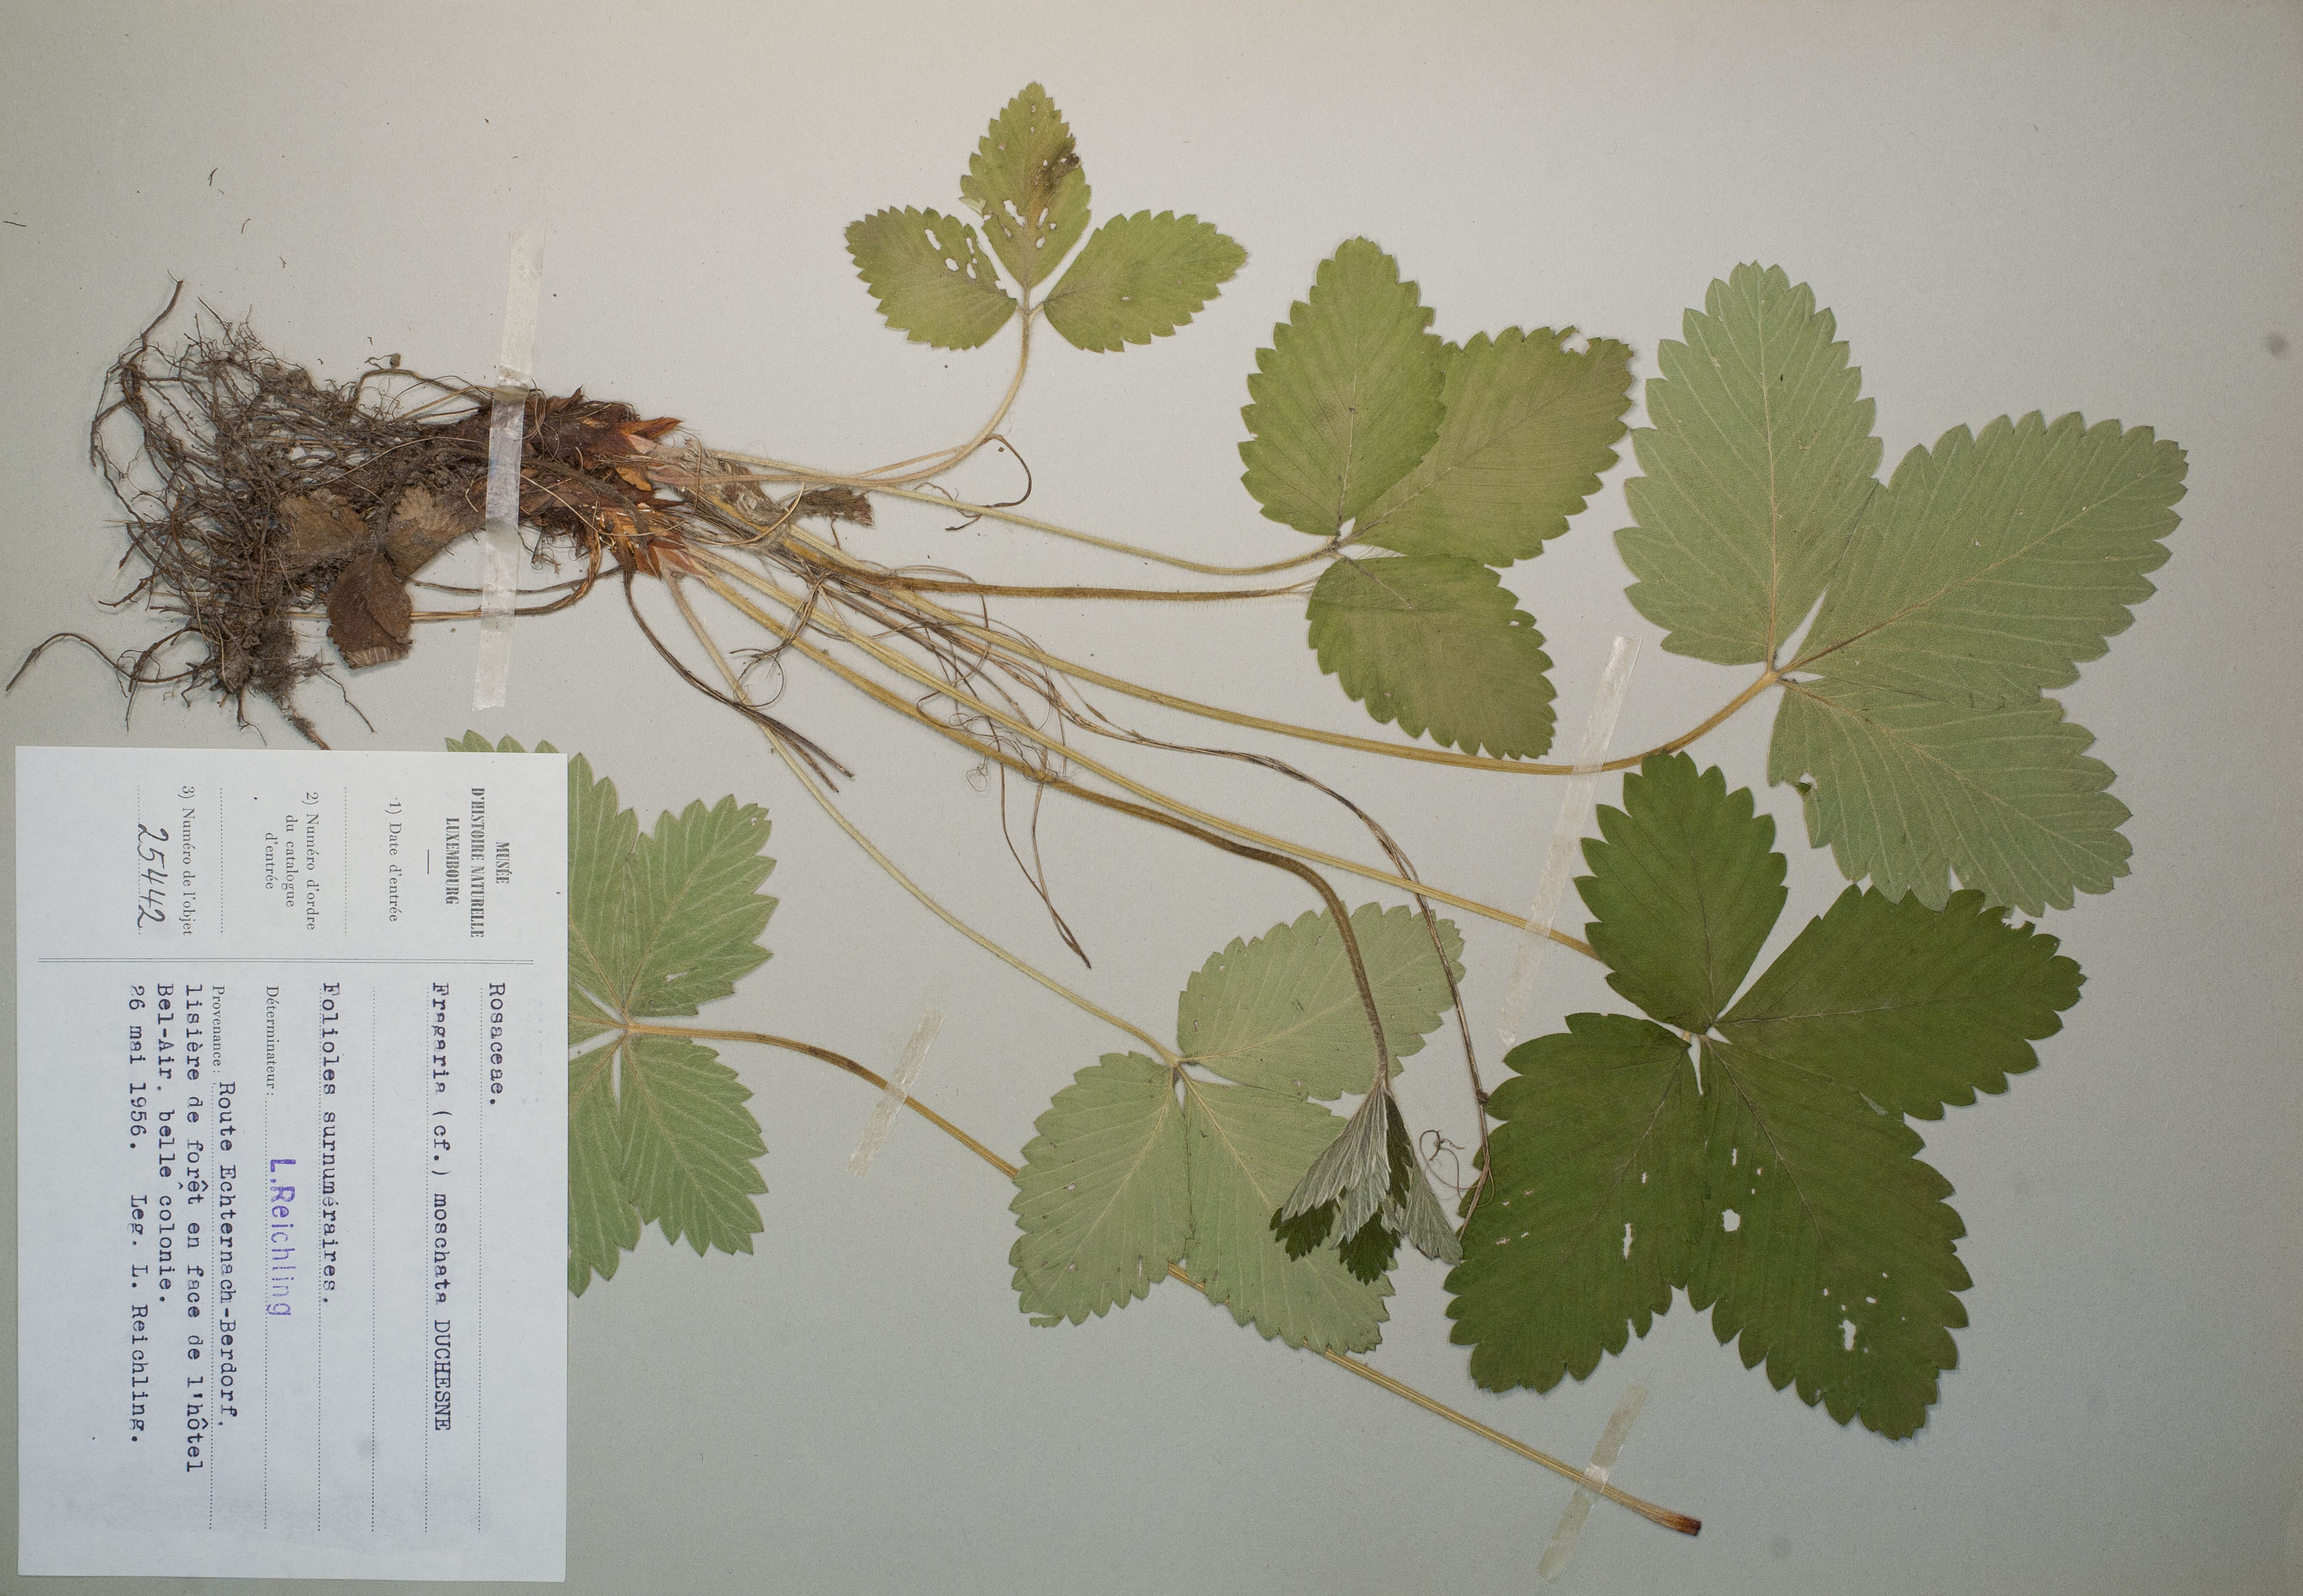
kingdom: Plantae
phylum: Tracheophyta
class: Magnoliopsida
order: Rosales
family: Rosaceae
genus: Fragaria
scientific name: Fragaria moschata
